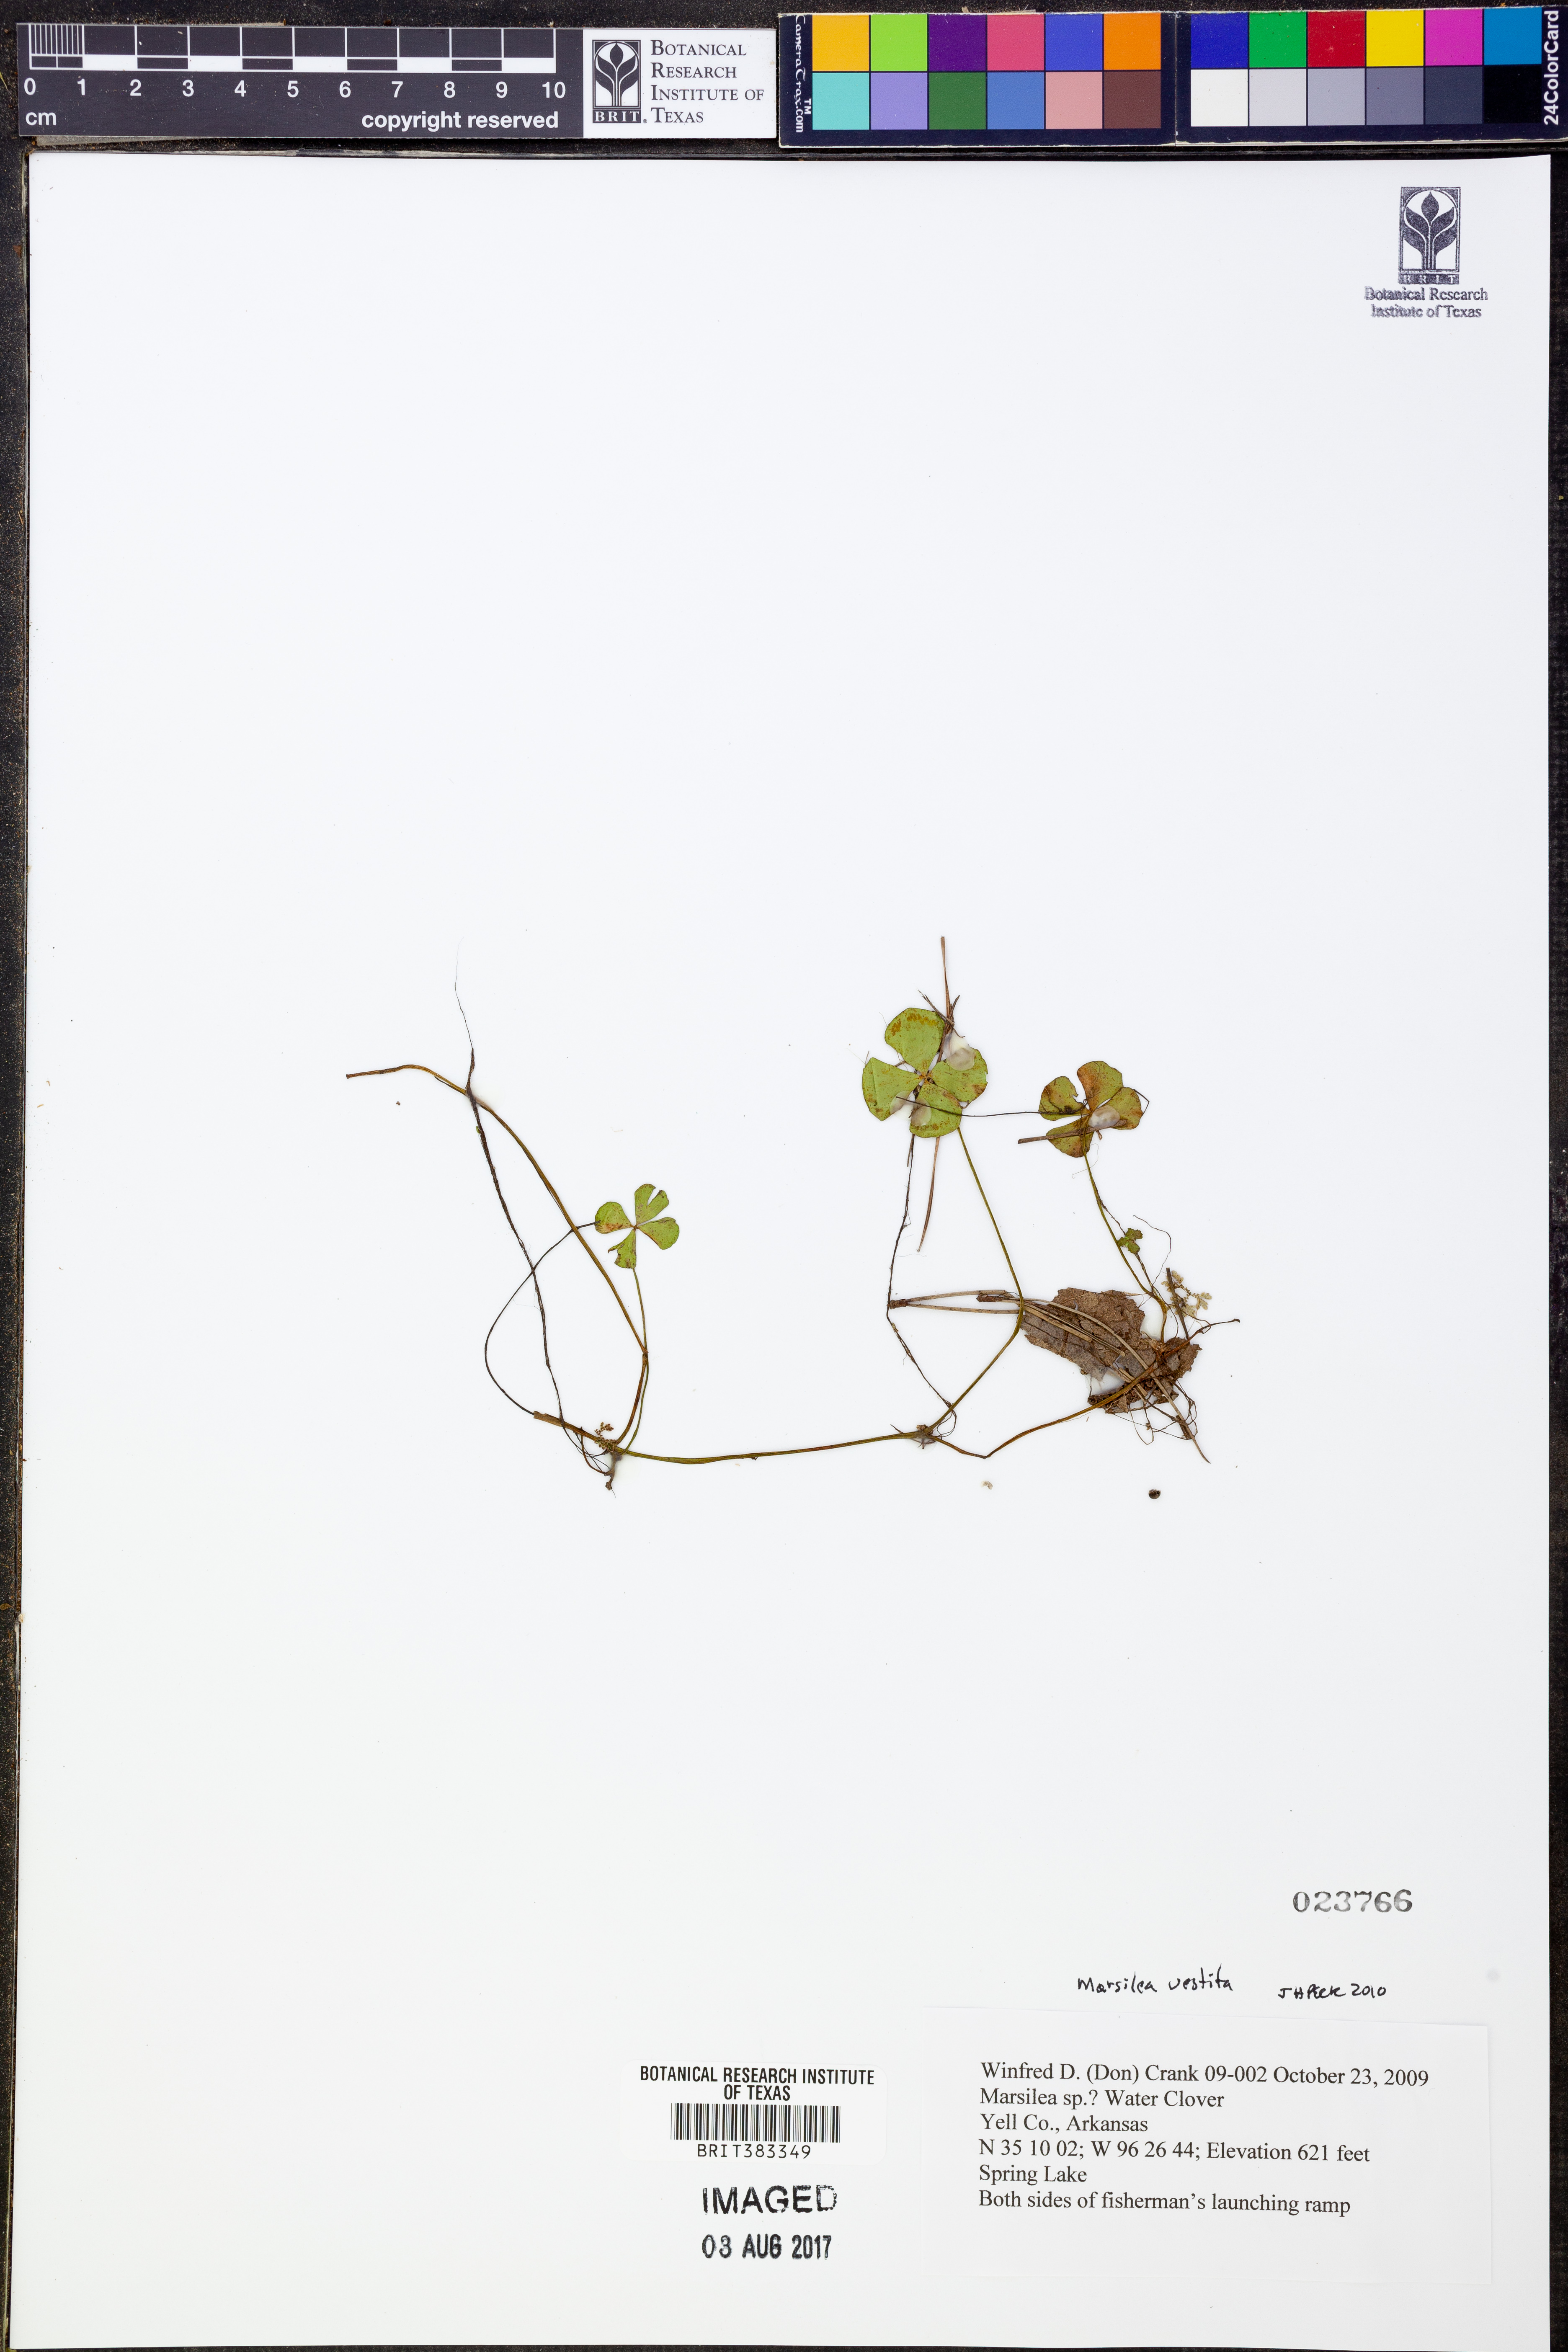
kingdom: Plantae
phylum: Tracheophyta
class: Polypodiopsida
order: Salviniales
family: Marsileaceae
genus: Marsilea
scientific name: Marsilea vestita
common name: Hooked-pepperwort
